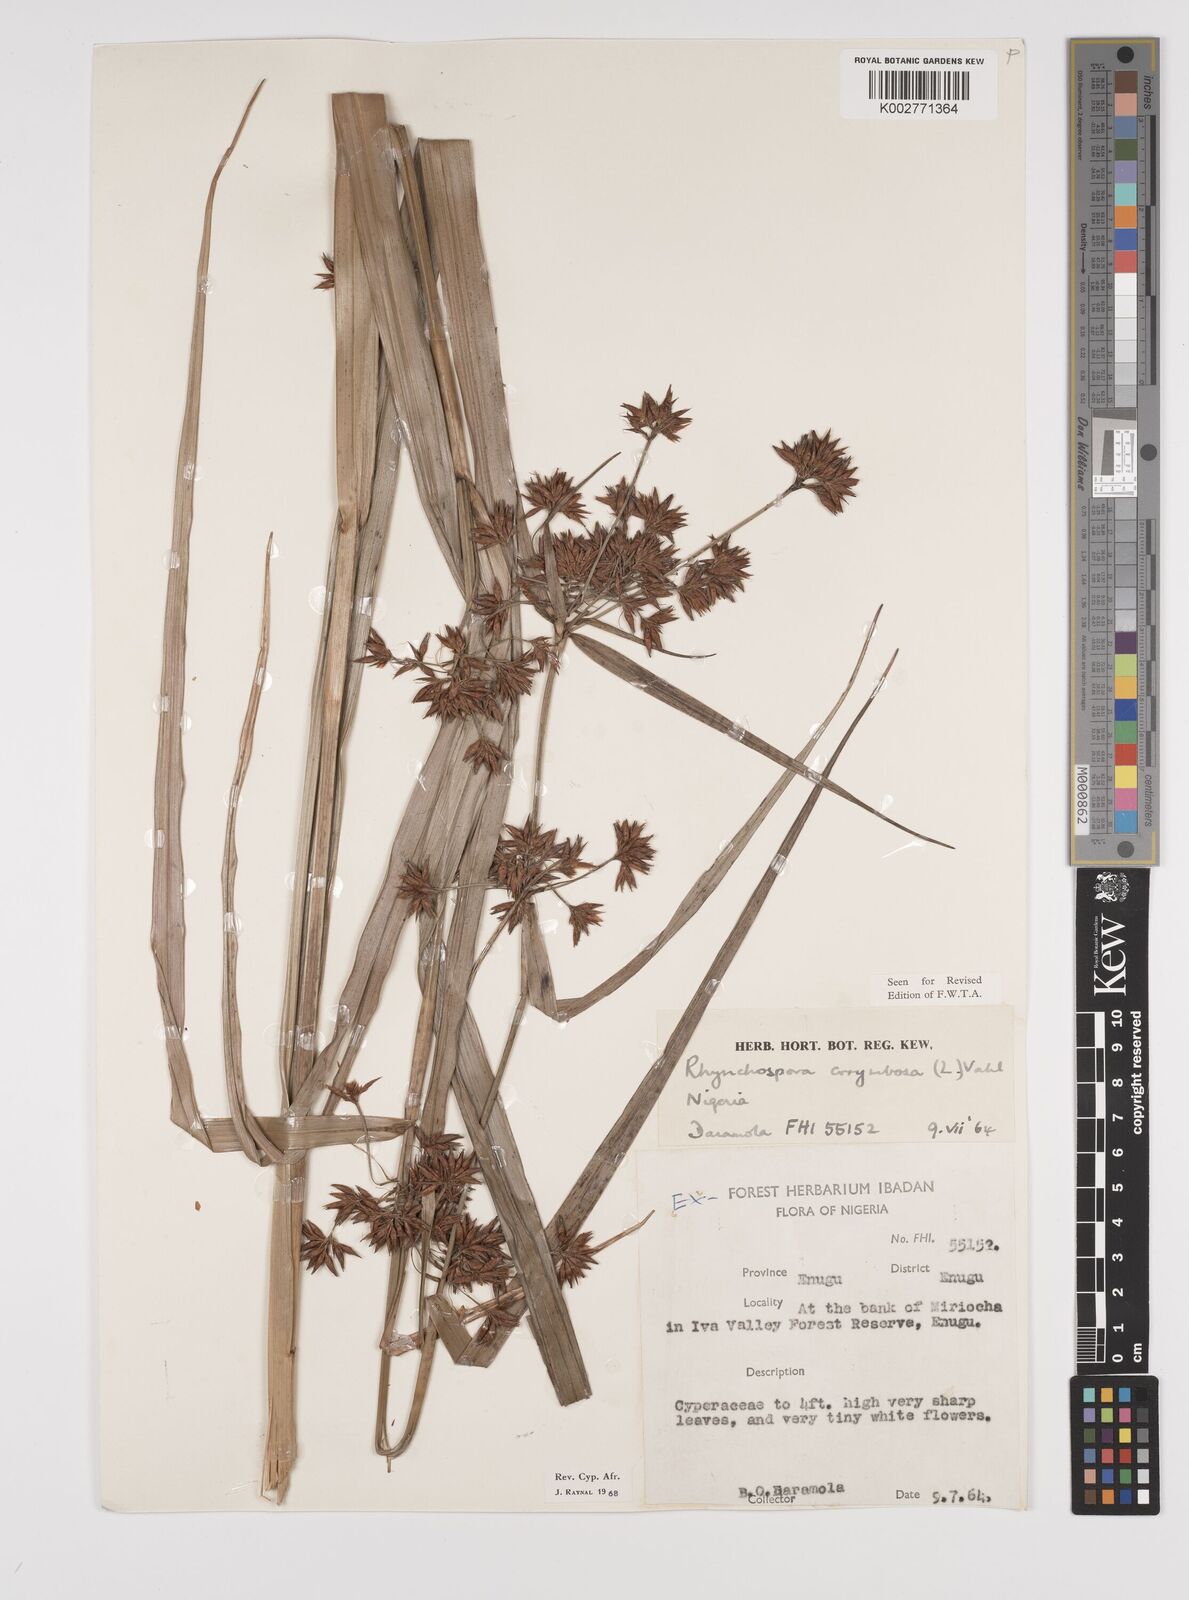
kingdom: Plantae
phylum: Tracheophyta
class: Liliopsida
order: Poales
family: Cyperaceae
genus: Rhynchospora
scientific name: Rhynchospora corymbosa
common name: Golden beak sedge
